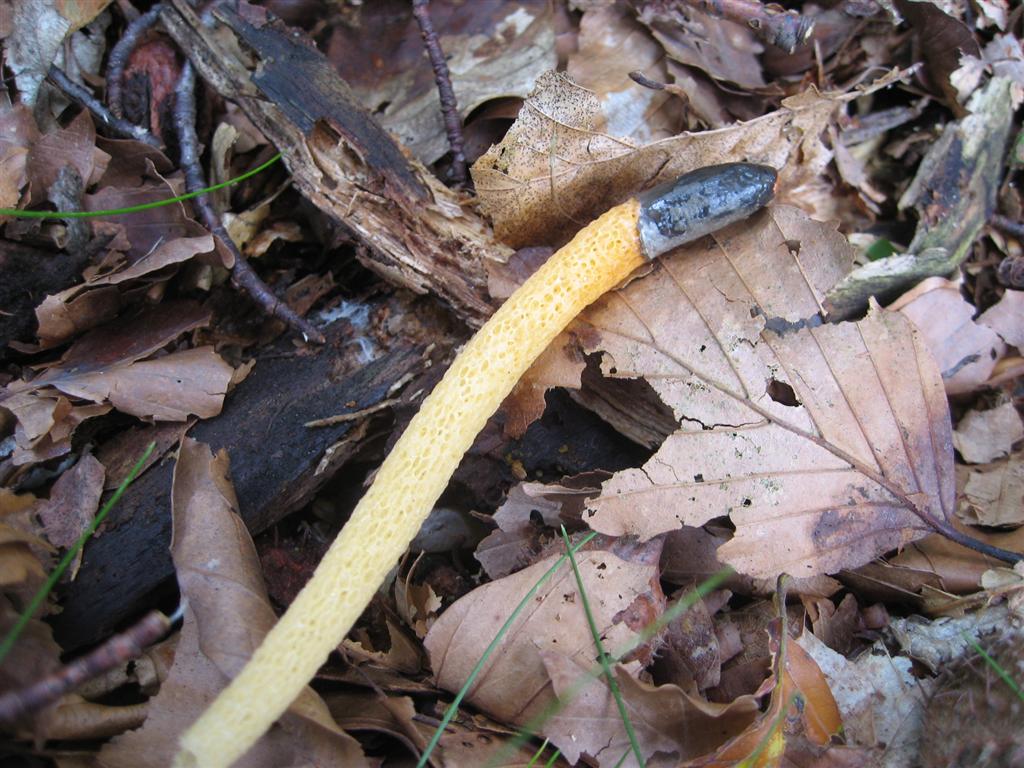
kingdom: Fungi
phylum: Basidiomycota
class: Agaricomycetes
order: Phallales
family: Phallaceae
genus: Mutinus
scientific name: Mutinus caninus
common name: hunde-stinksvamp
